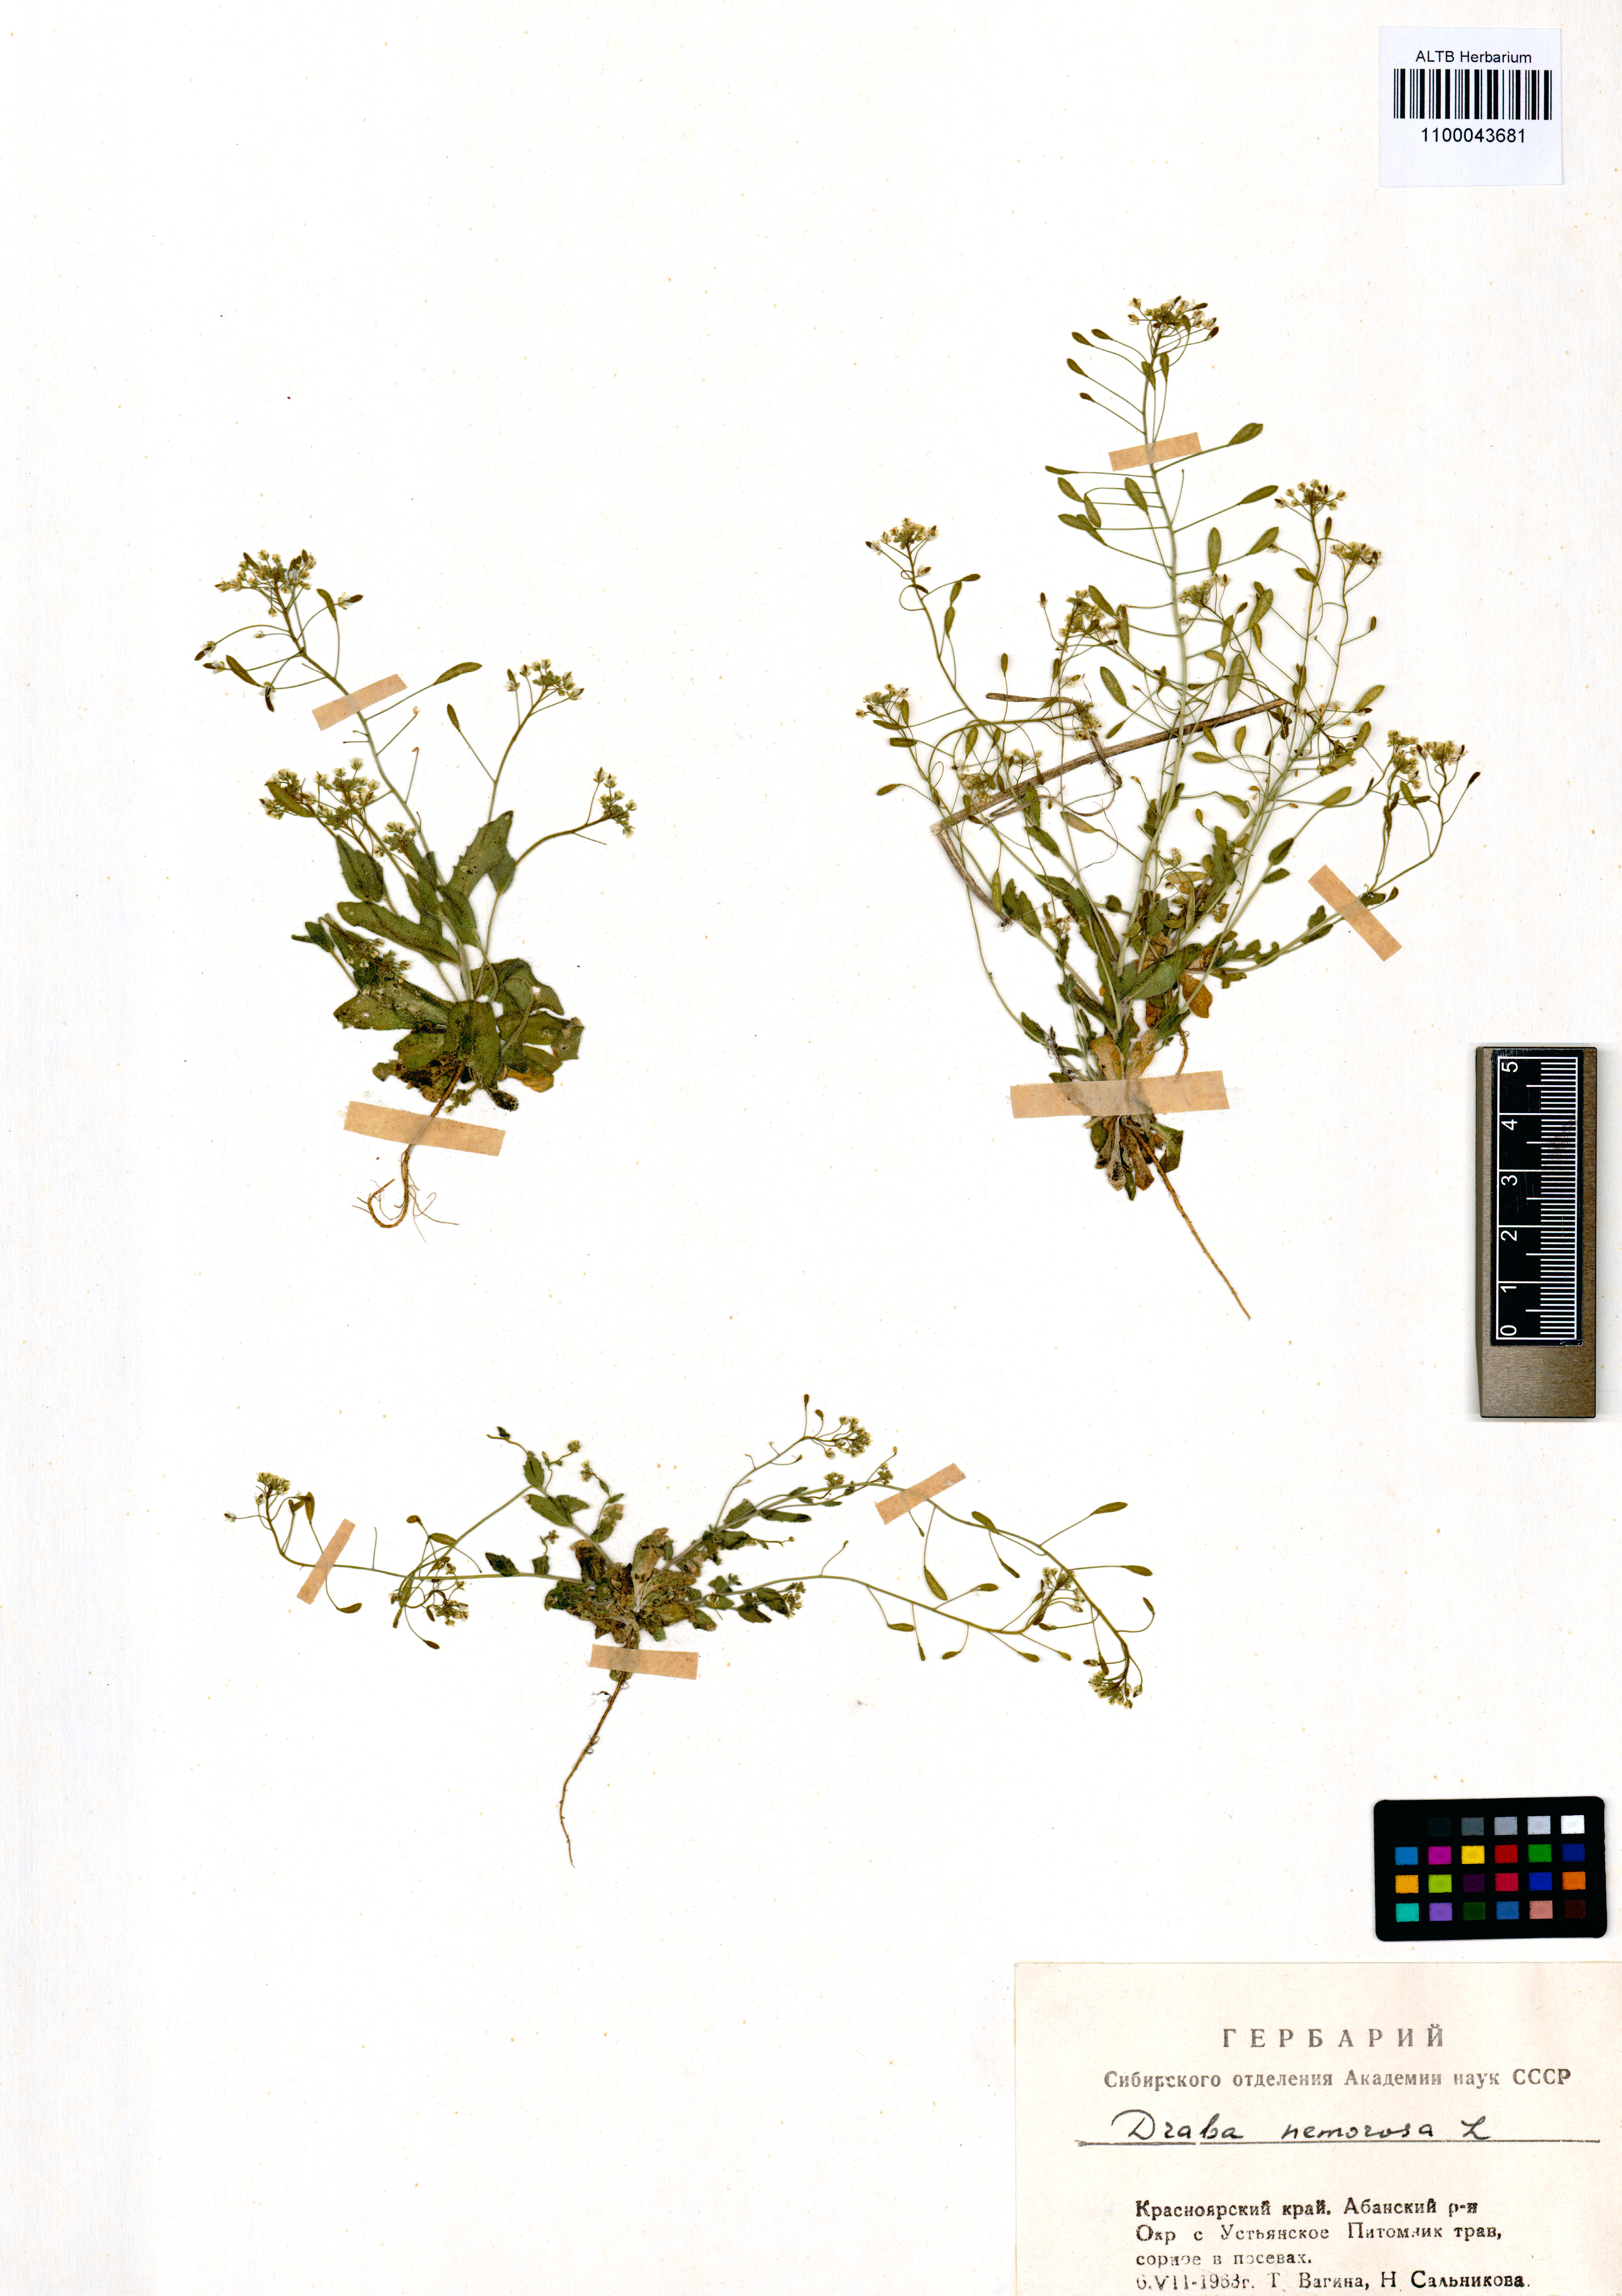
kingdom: Plantae
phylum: Tracheophyta
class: Magnoliopsida
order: Brassicales
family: Brassicaceae
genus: Draba
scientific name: Draba nemorosa
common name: Wood whitlow-grass
